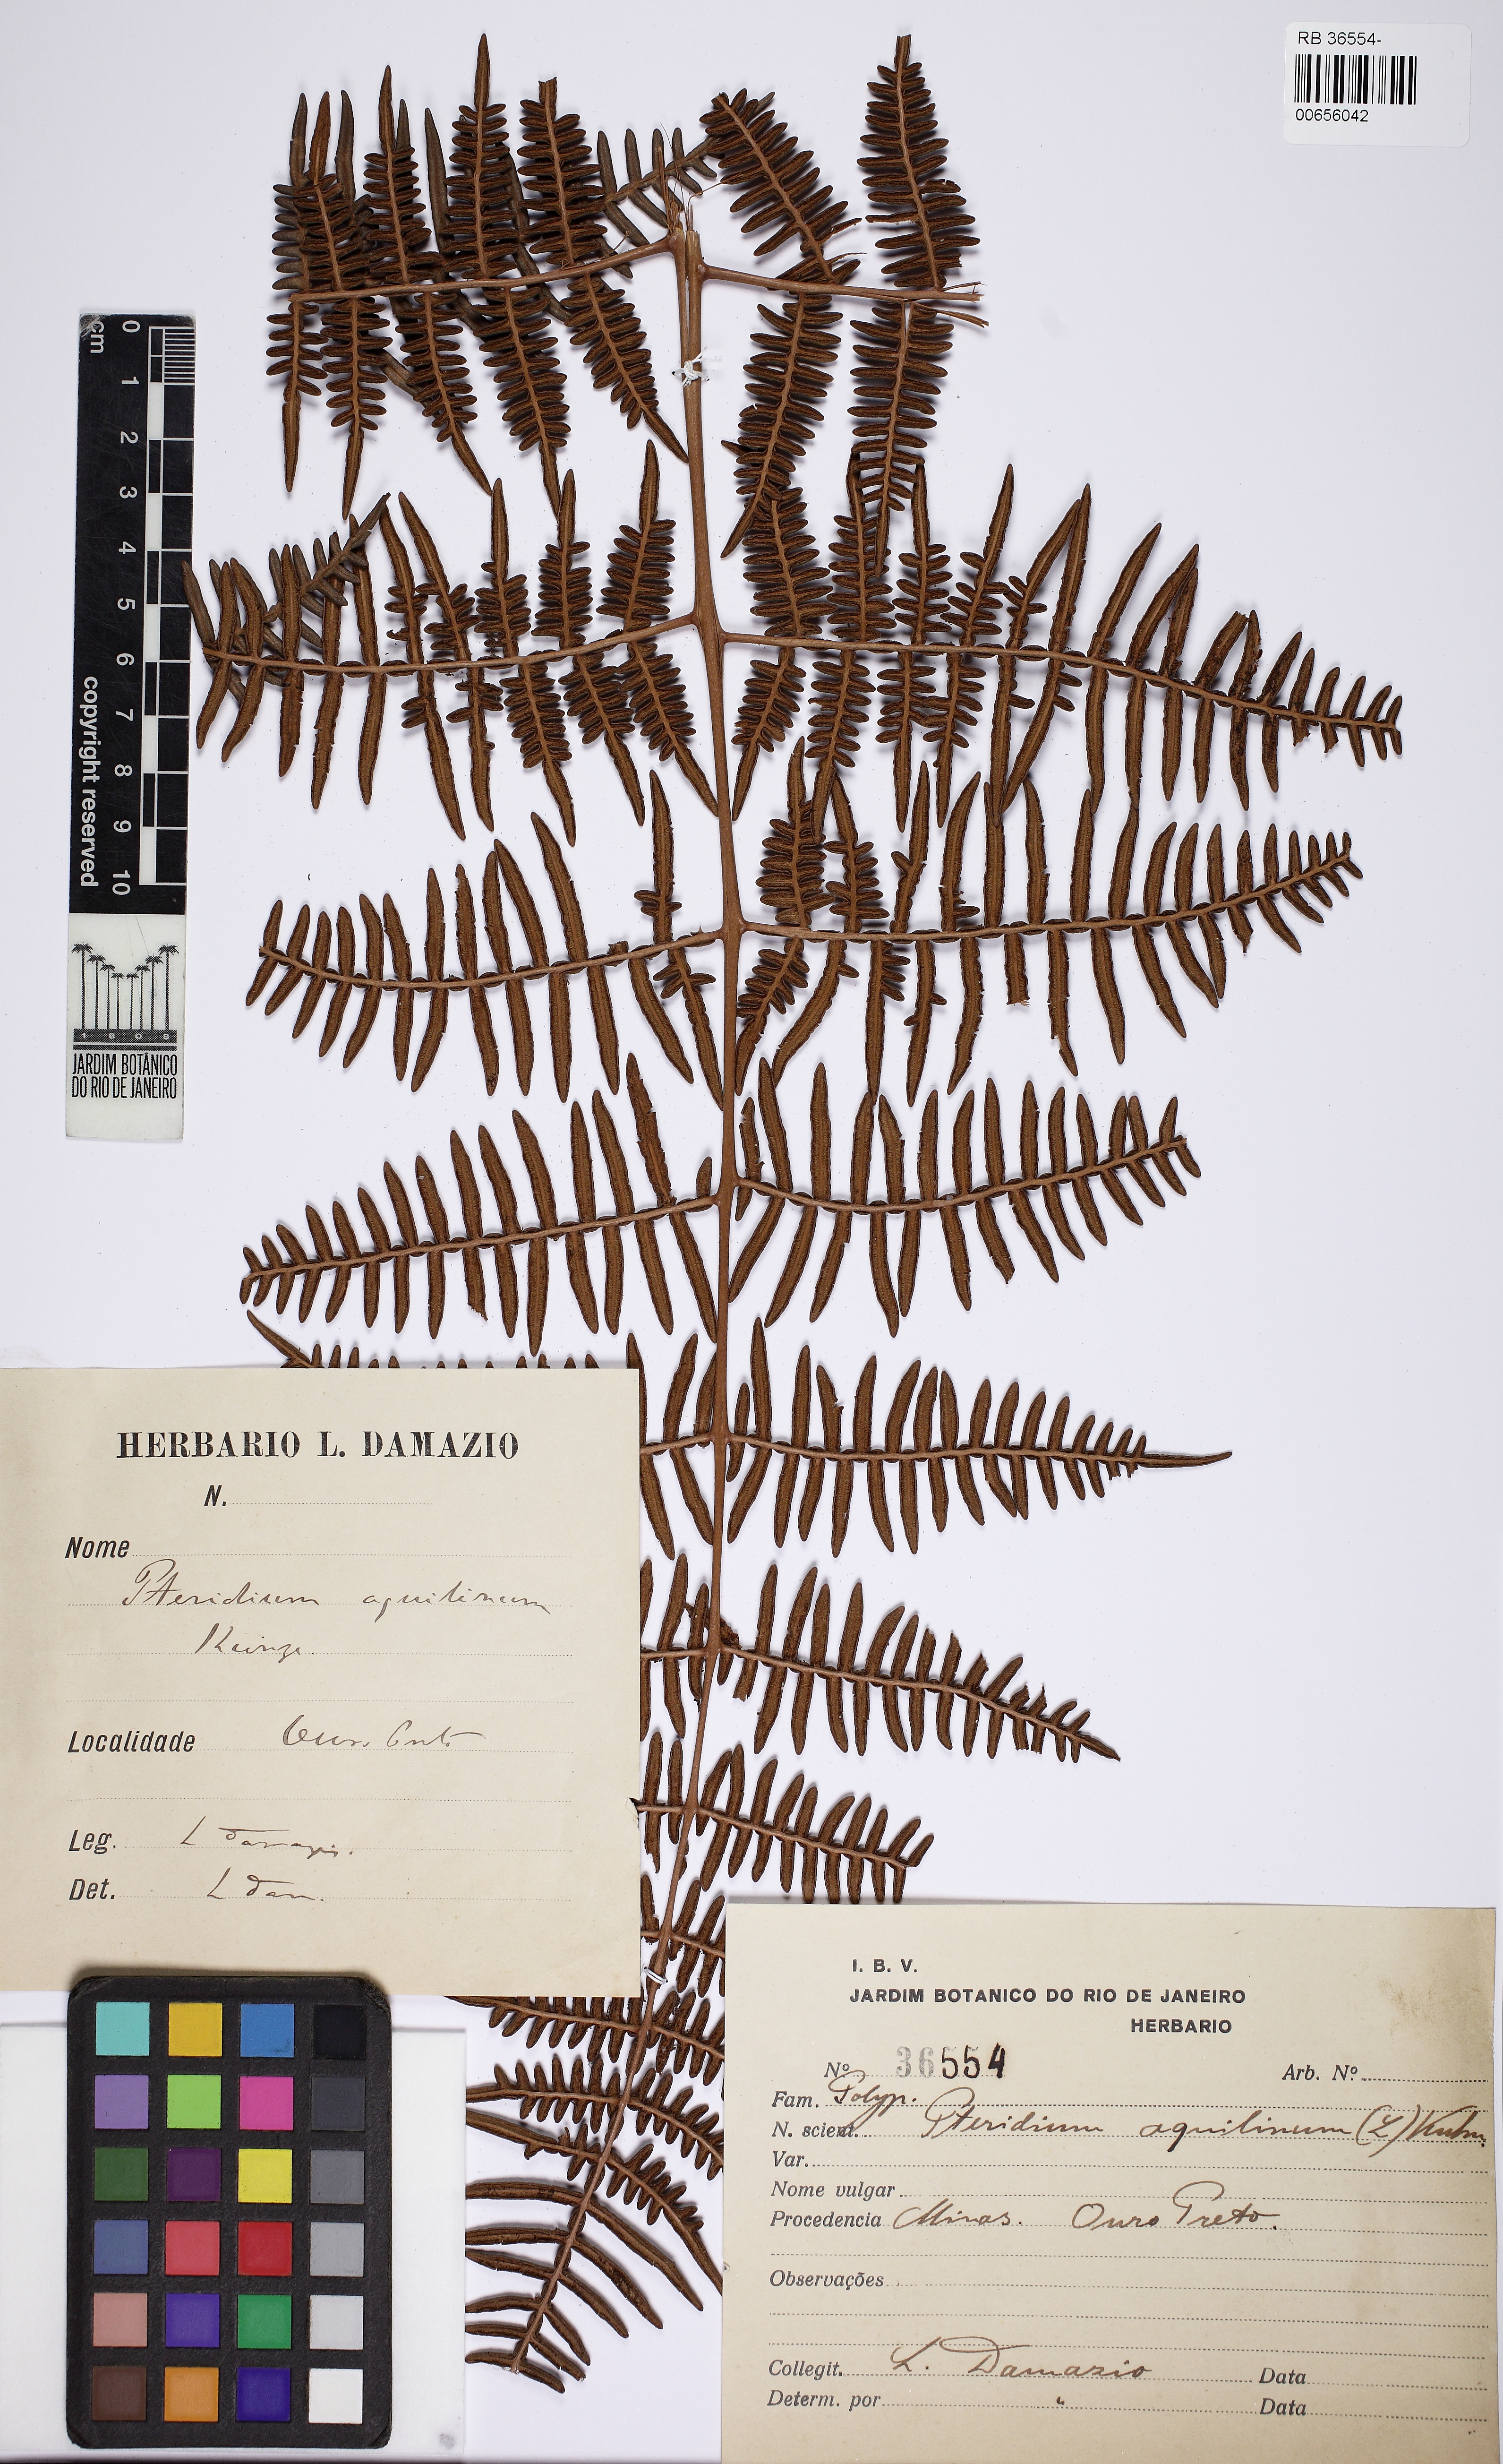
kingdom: Plantae
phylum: Tracheophyta
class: Polypodiopsida
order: Polypodiales
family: Dennstaedtiaceae
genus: Pteridium
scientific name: Pteridium aquilinum
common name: Bracken
